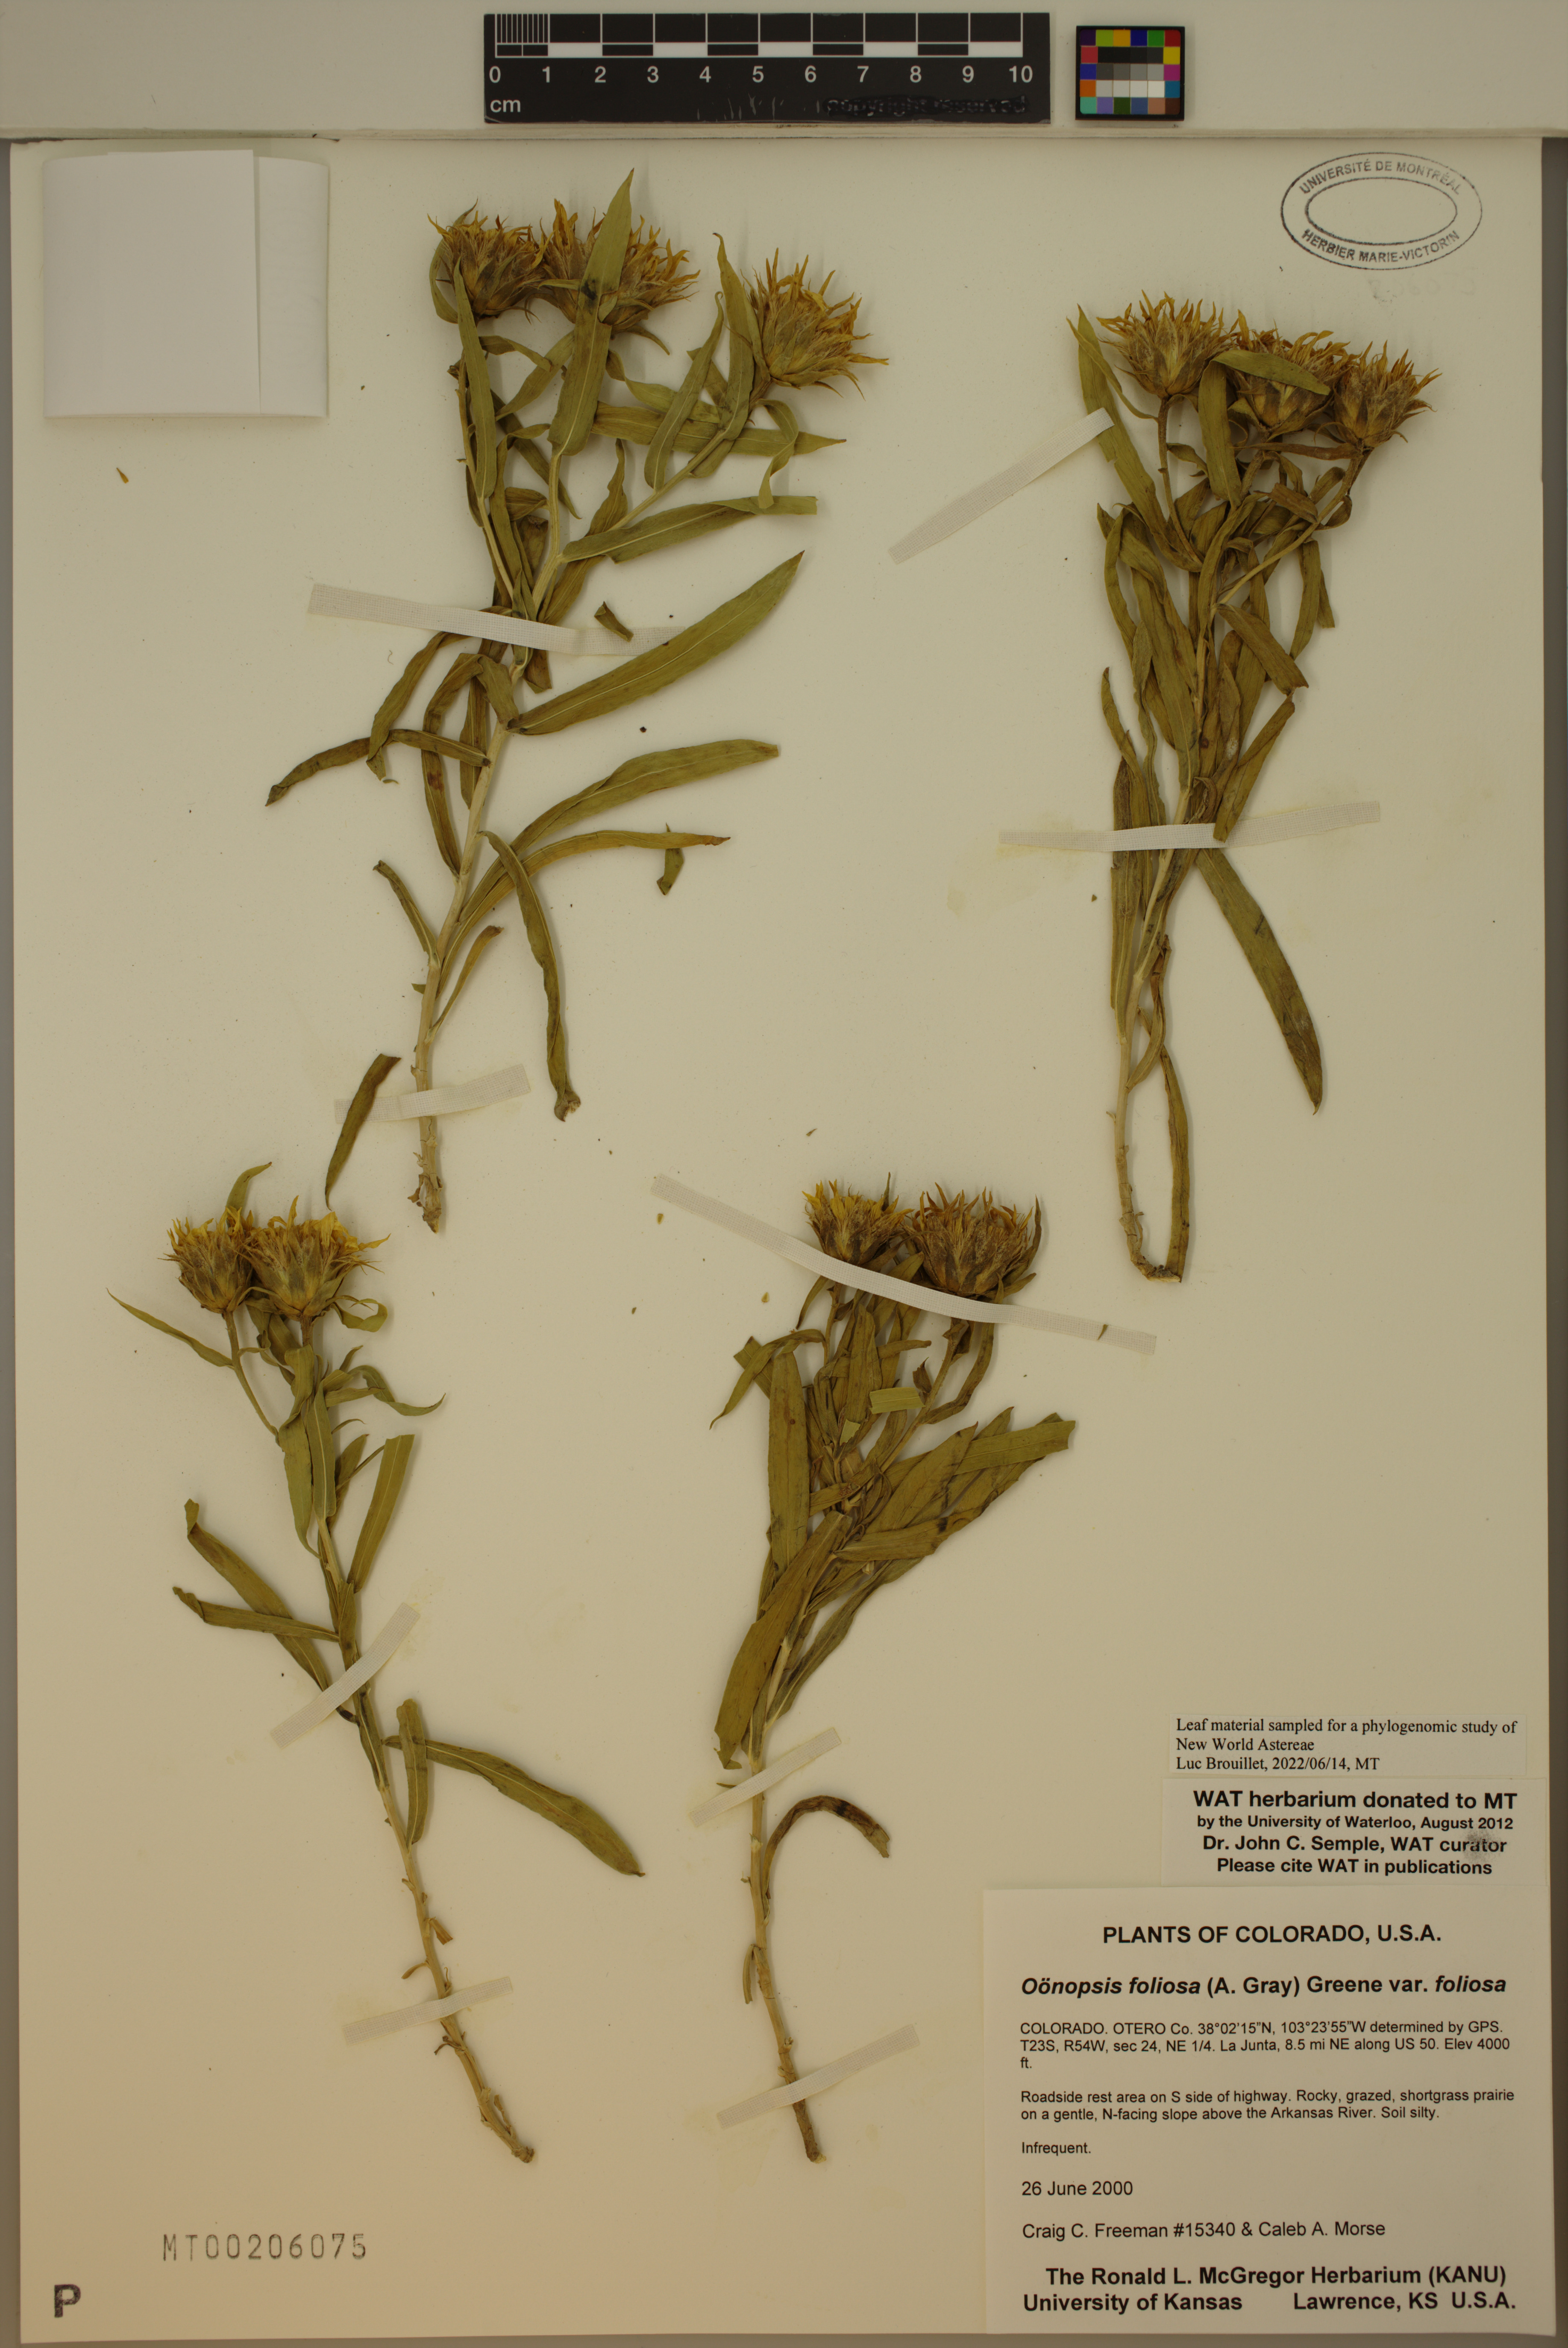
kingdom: Plantae
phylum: Tracheophyta
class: Magnoliopsida
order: Asterales
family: Asteraceae
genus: Oonopsis
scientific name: Oonopsis foliosa
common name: Leafy goldenweed
